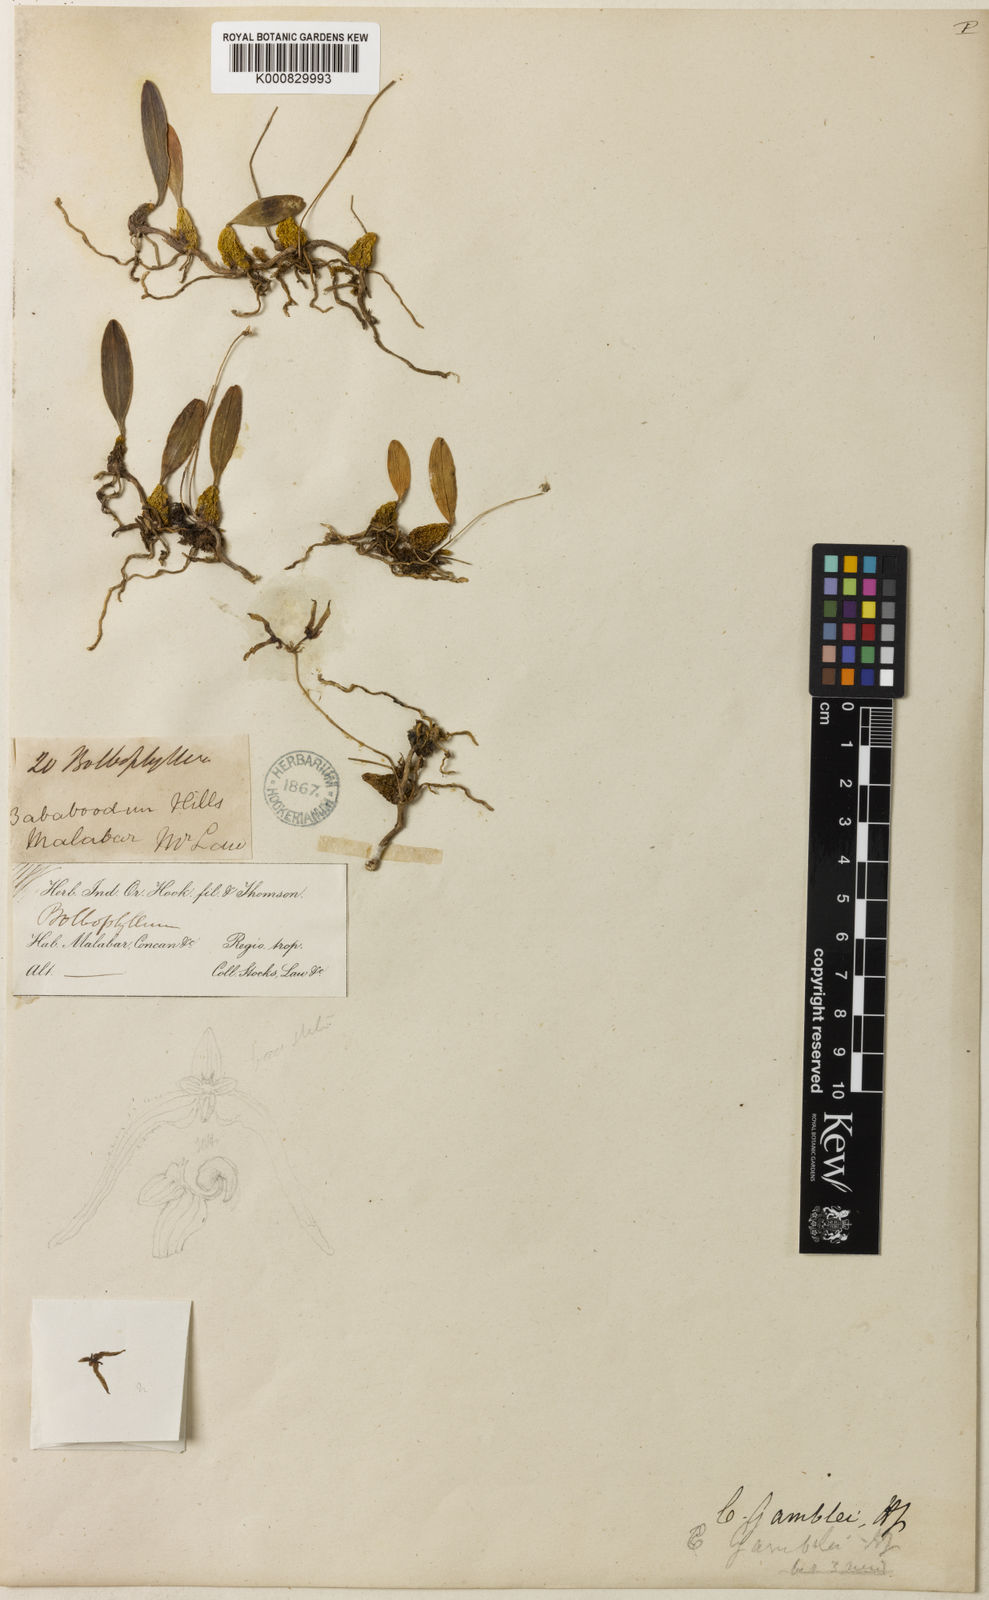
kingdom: Plantae
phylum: Tracheophyta
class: Liliopsida
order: Asparagales
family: Orchidaceae
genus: Bulbophyllum
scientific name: Bulbophyllum fischeri
